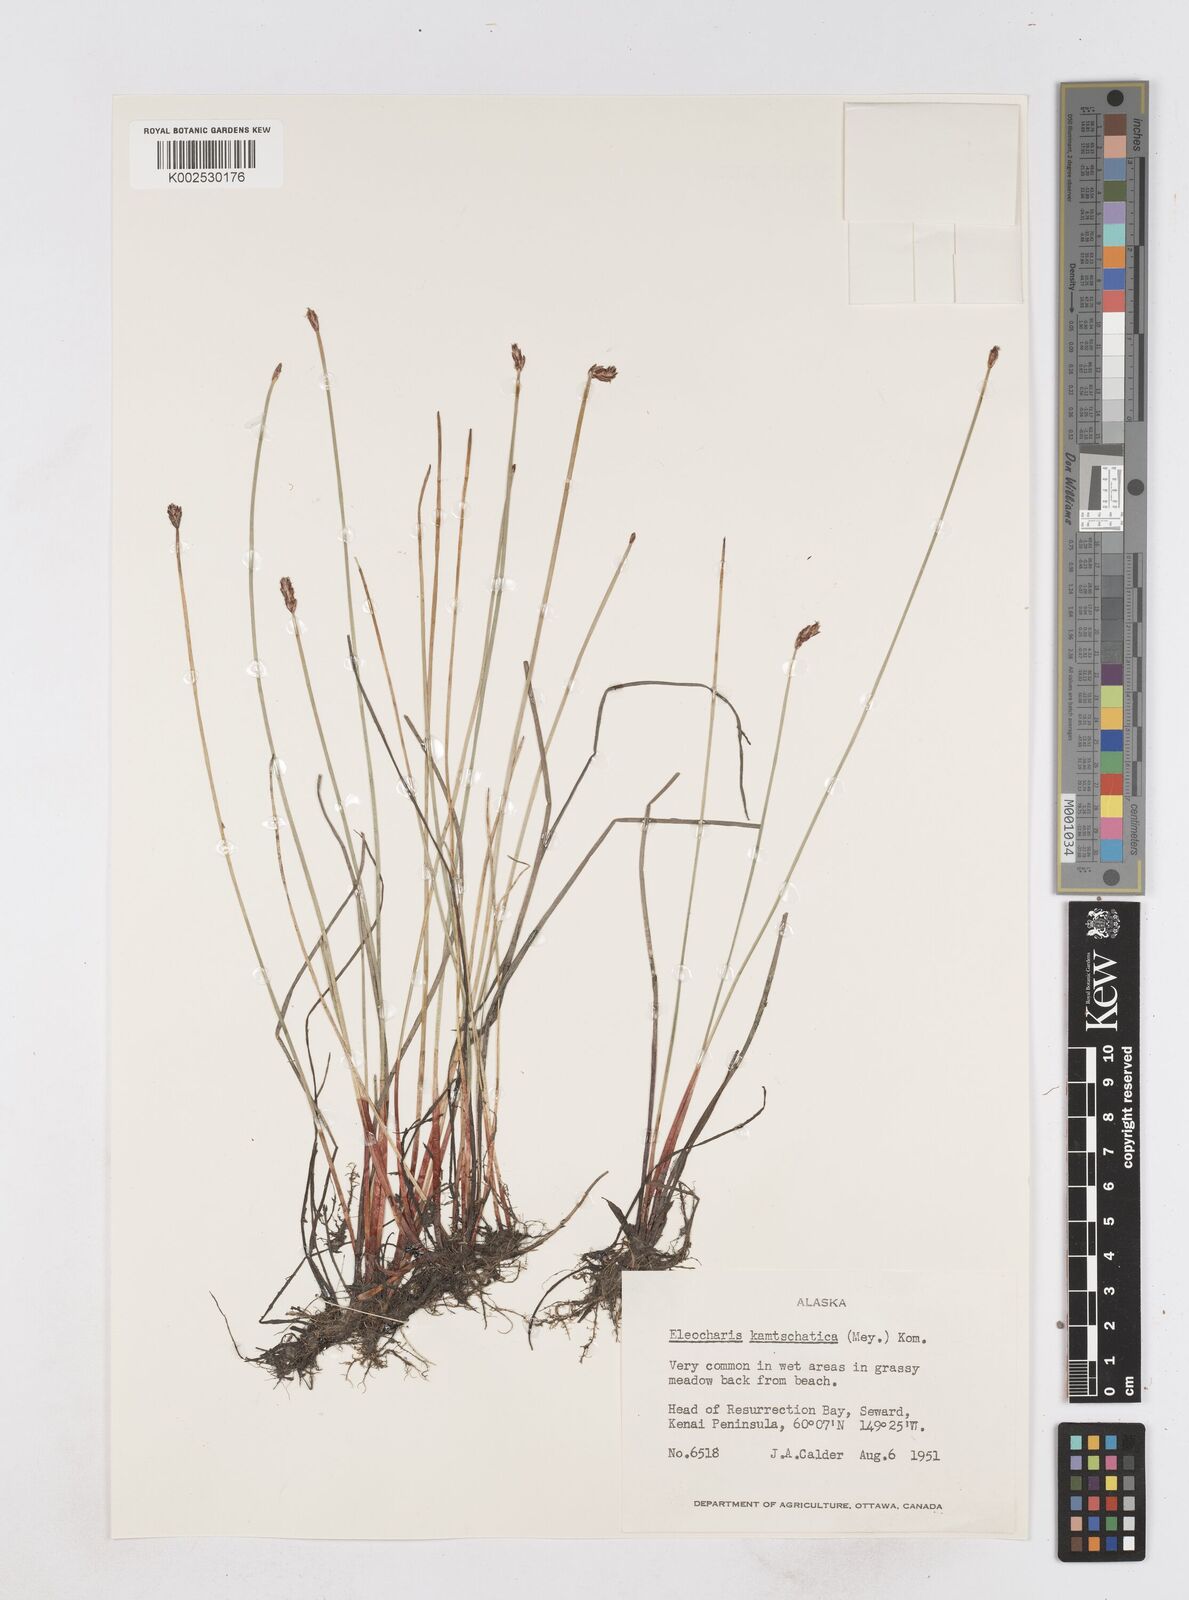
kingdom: Plantae
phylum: Tracheophyta
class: Liliopsida
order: Poales
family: Cyperaceae
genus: Eleocharis
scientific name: Eleocharis kamtschatica
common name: Kamchatka spikerush
